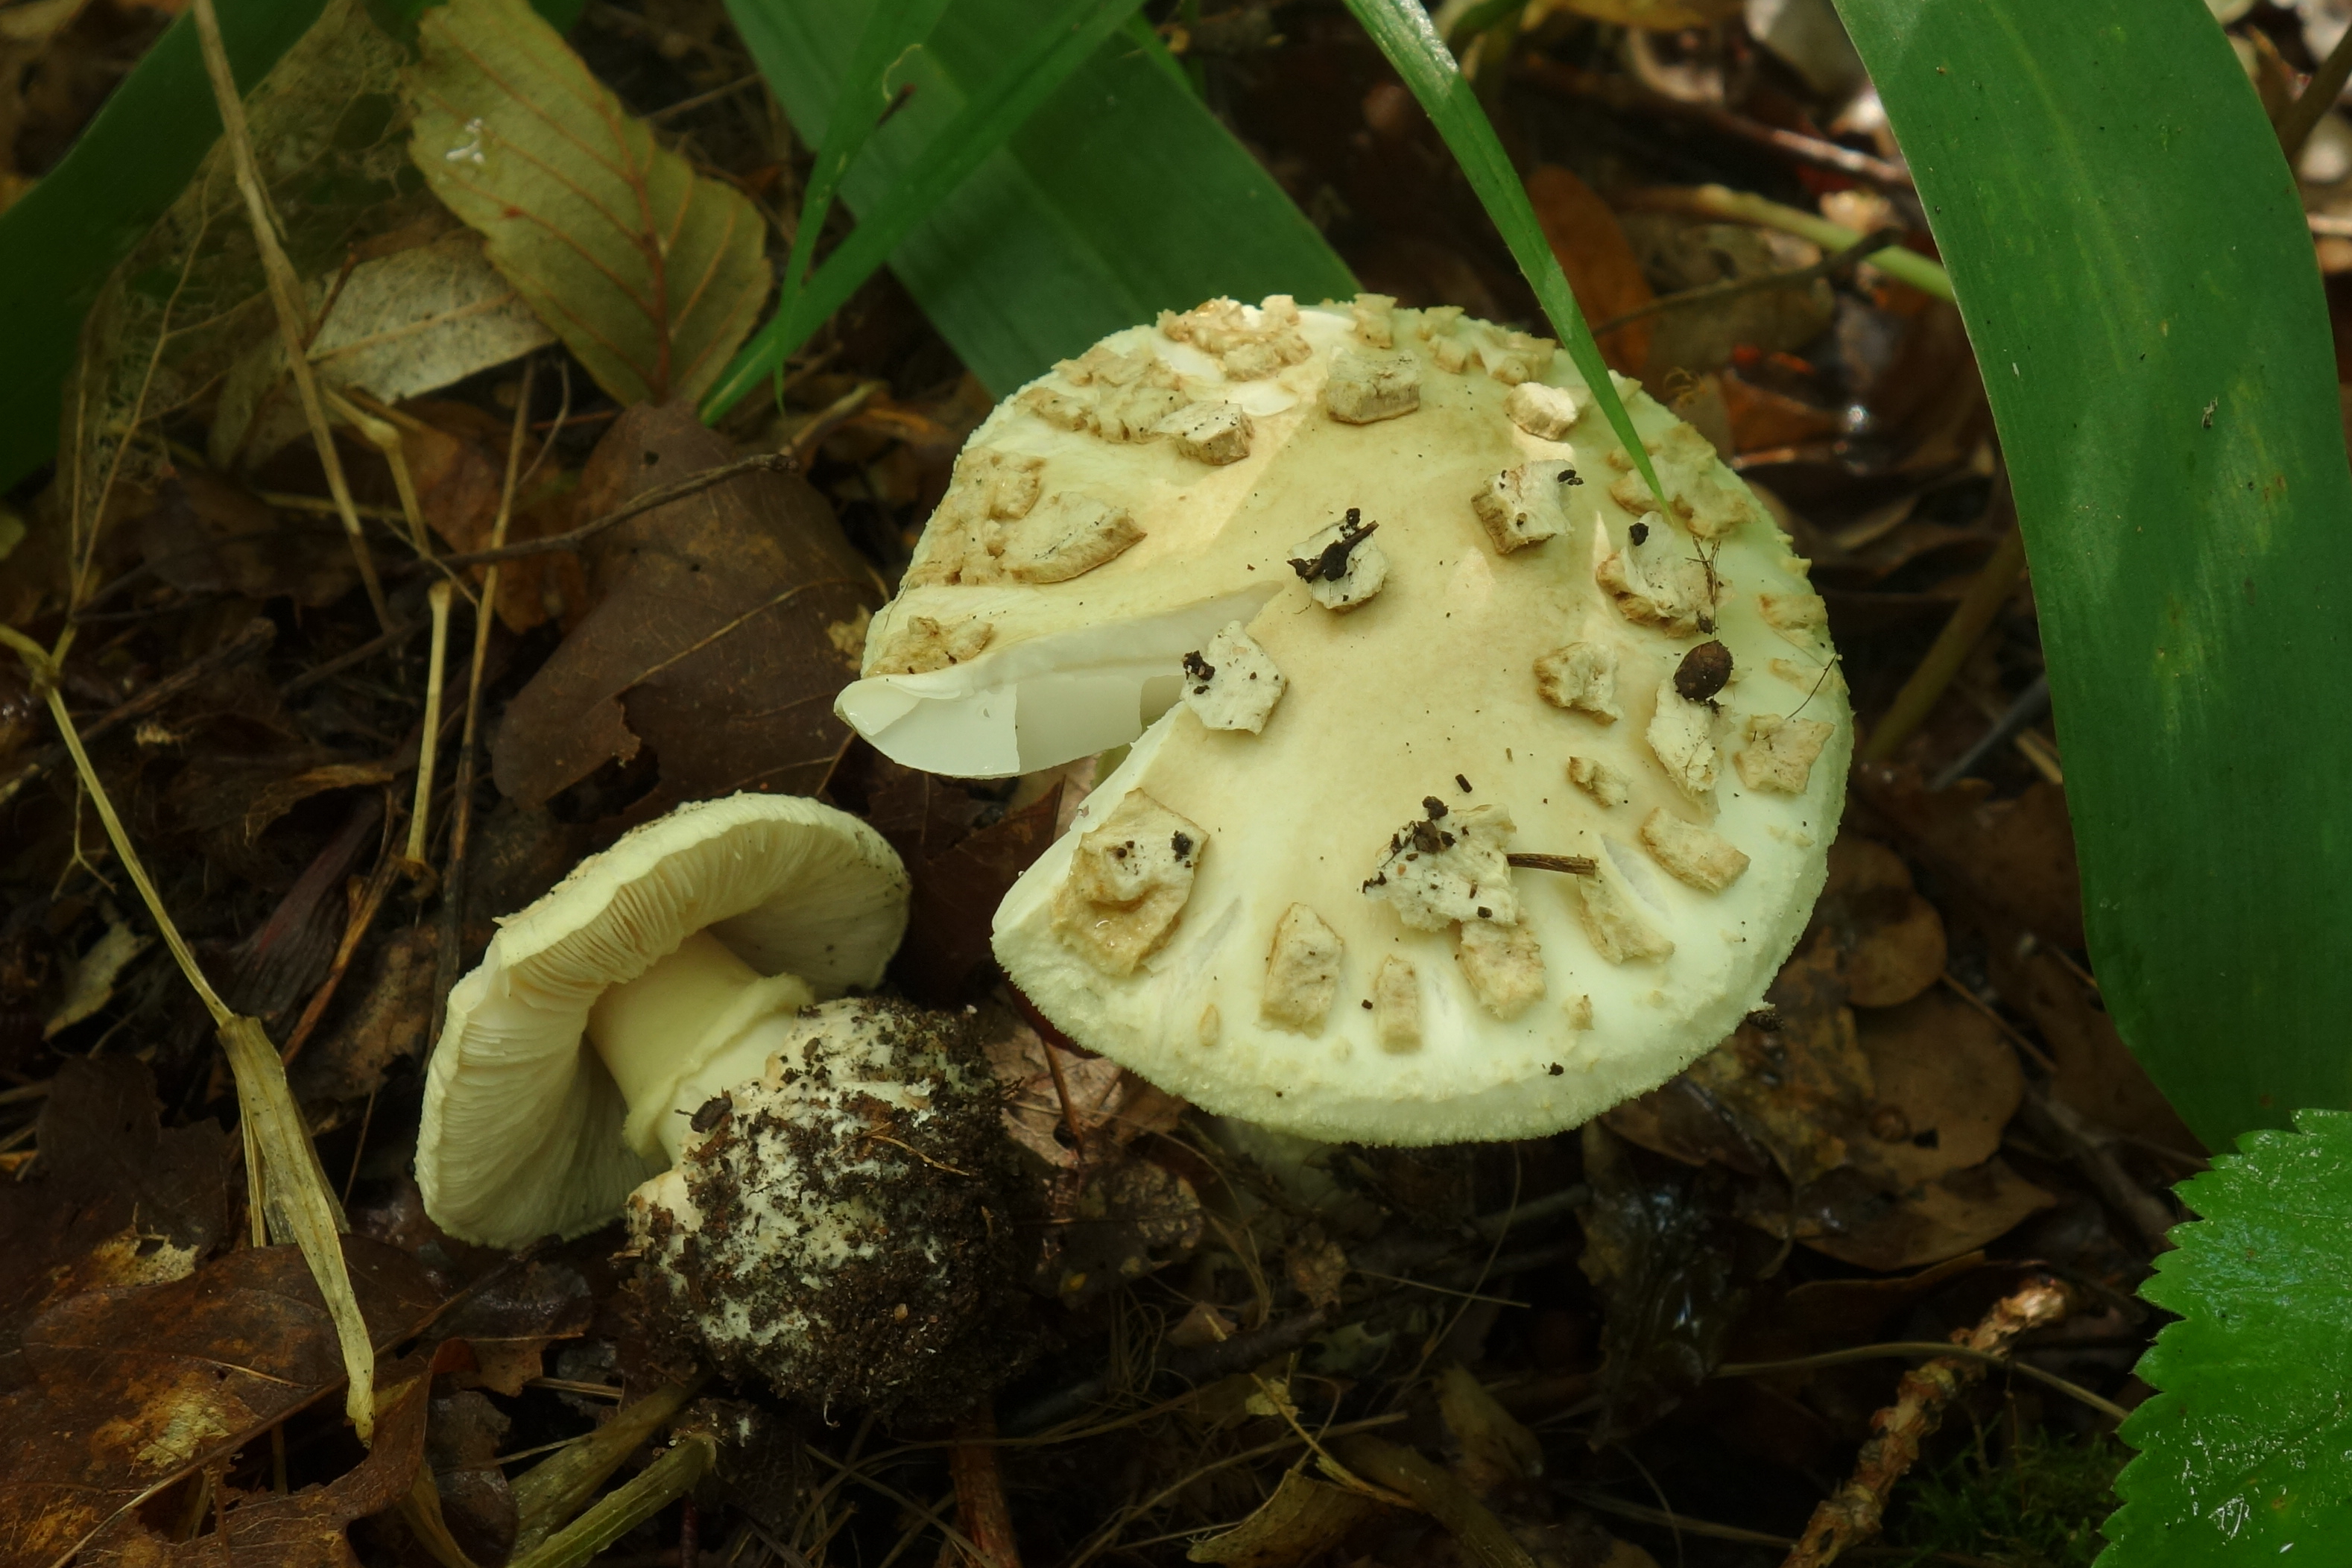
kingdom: Fungi
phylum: Basidiomycota
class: Agaricomycetes
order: Agaricales
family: Amanitaceae
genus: Amanita
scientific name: Amanita citrina
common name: False death-cap
